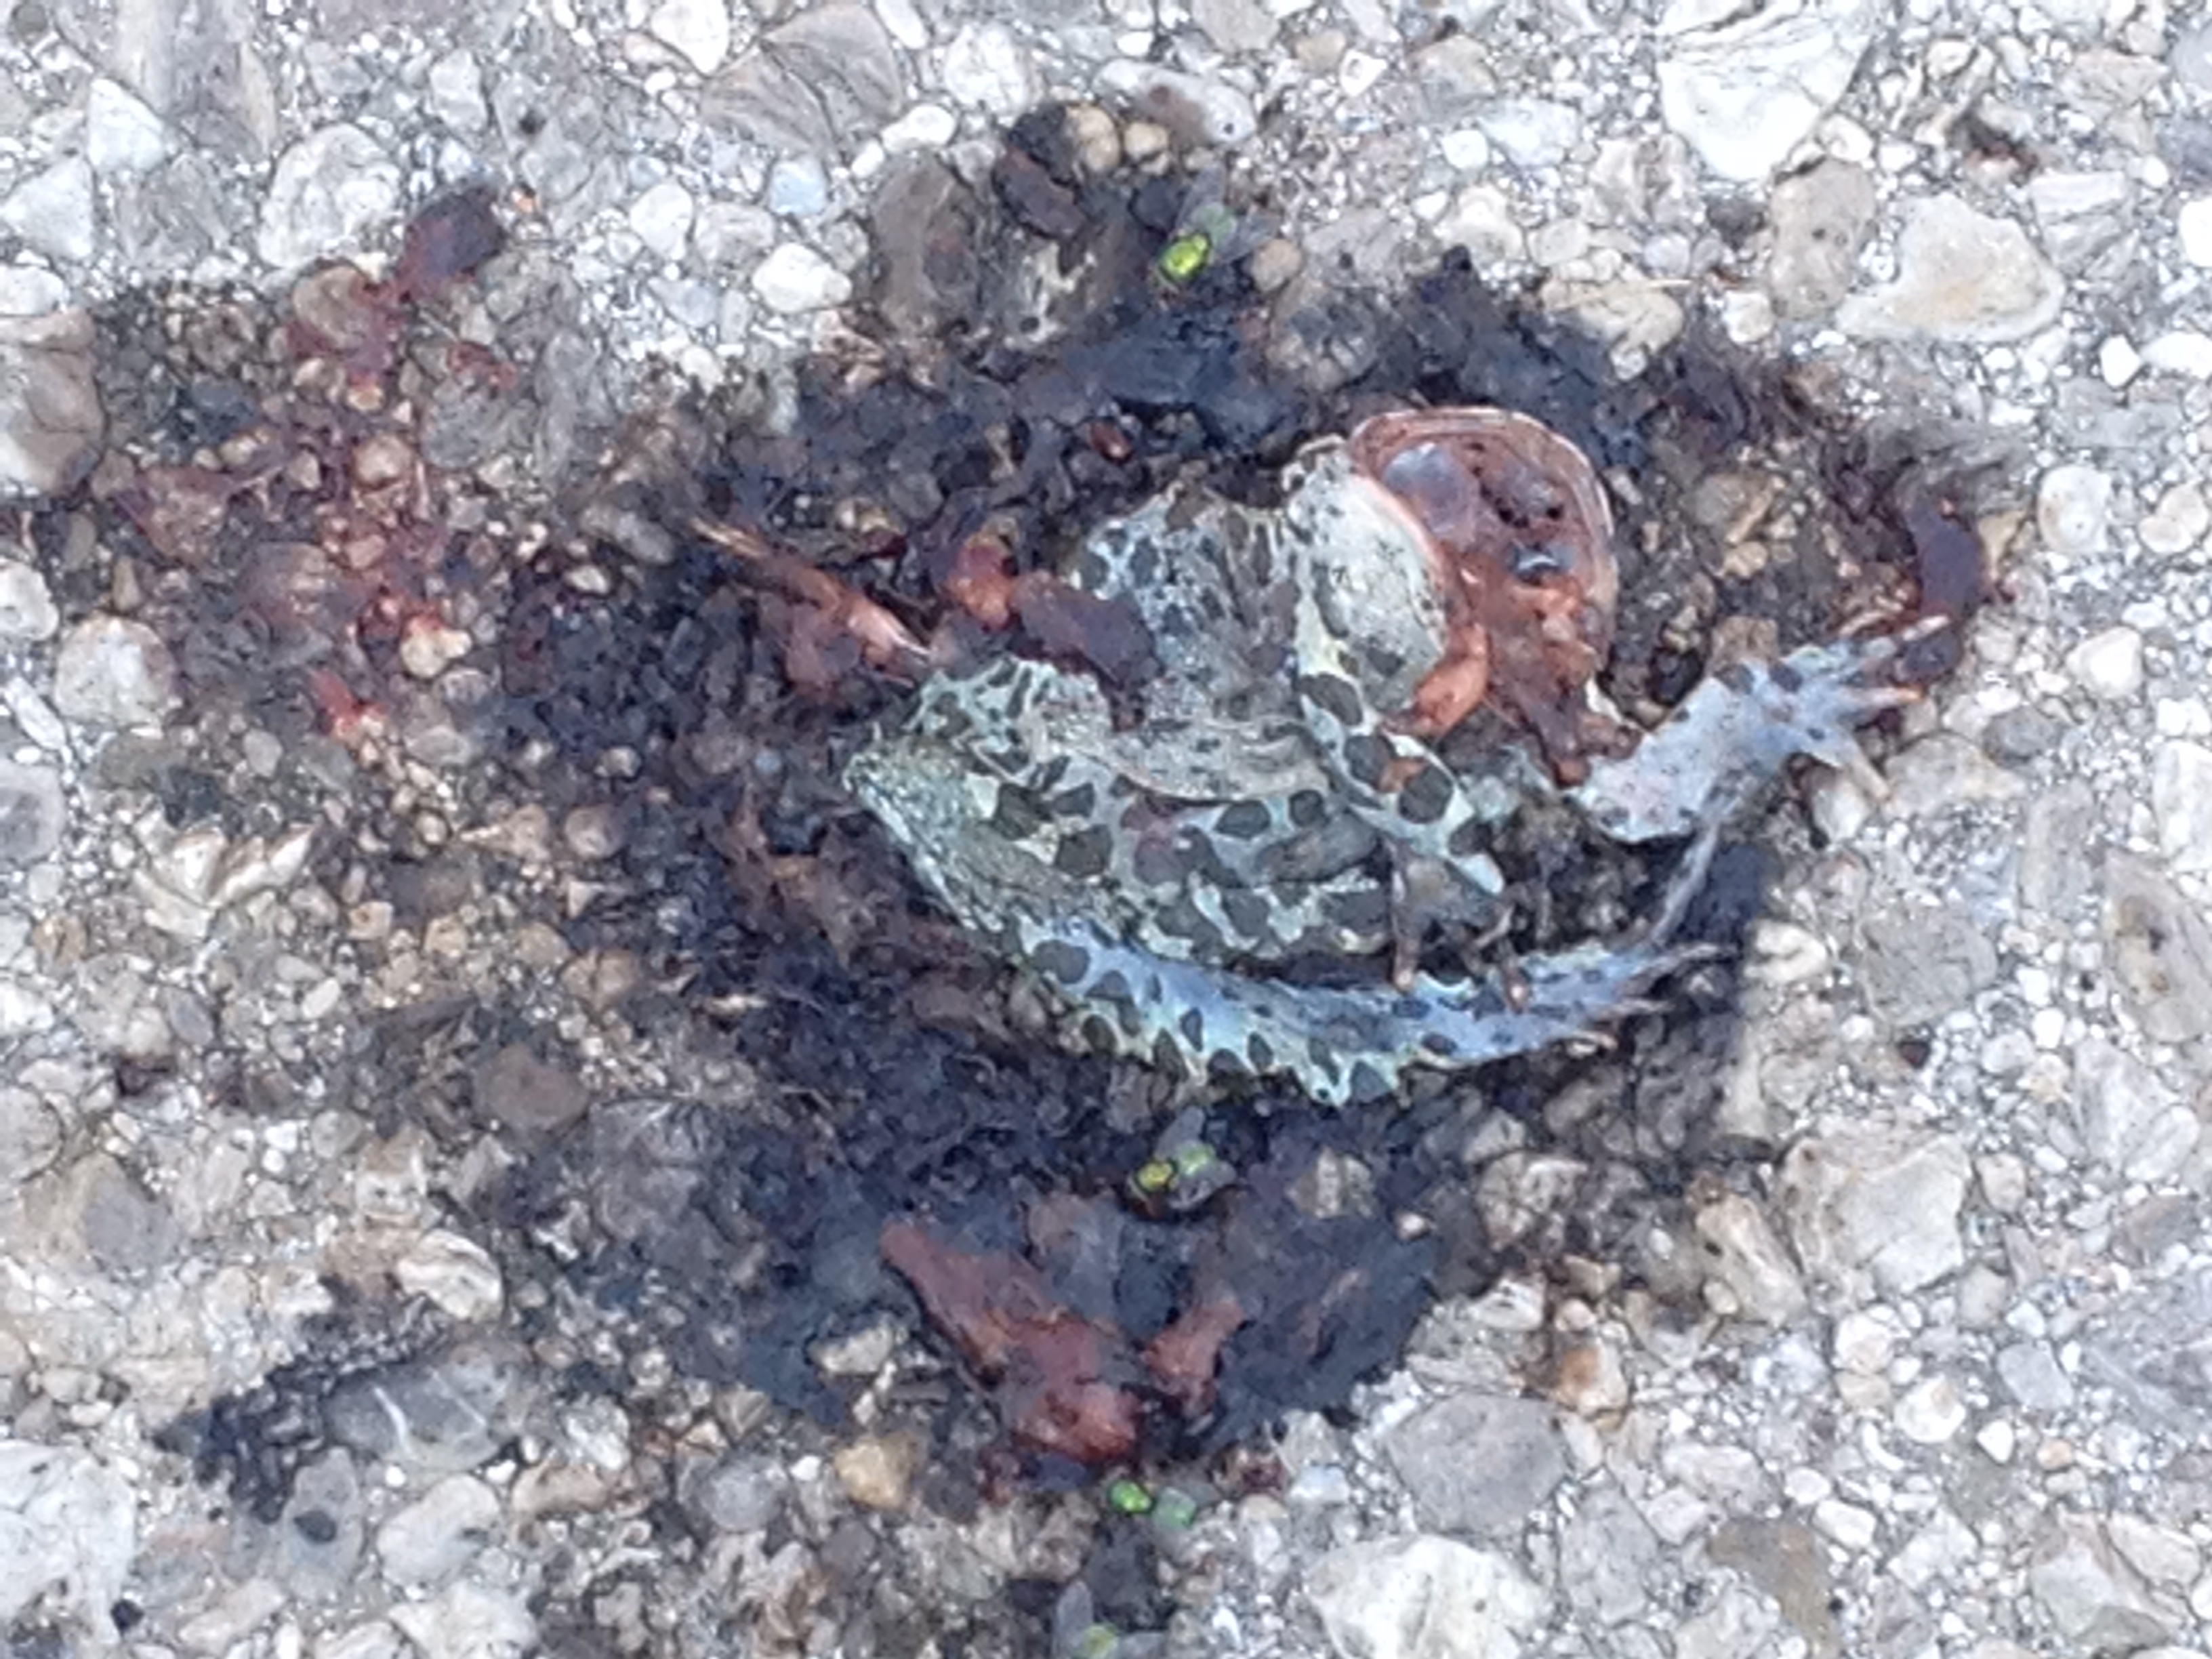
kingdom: Animalia
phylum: Chordata
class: Amphibia
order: Anura
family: Bufonidae
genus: Bufotes
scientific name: Bufotes viridis
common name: European green toad
